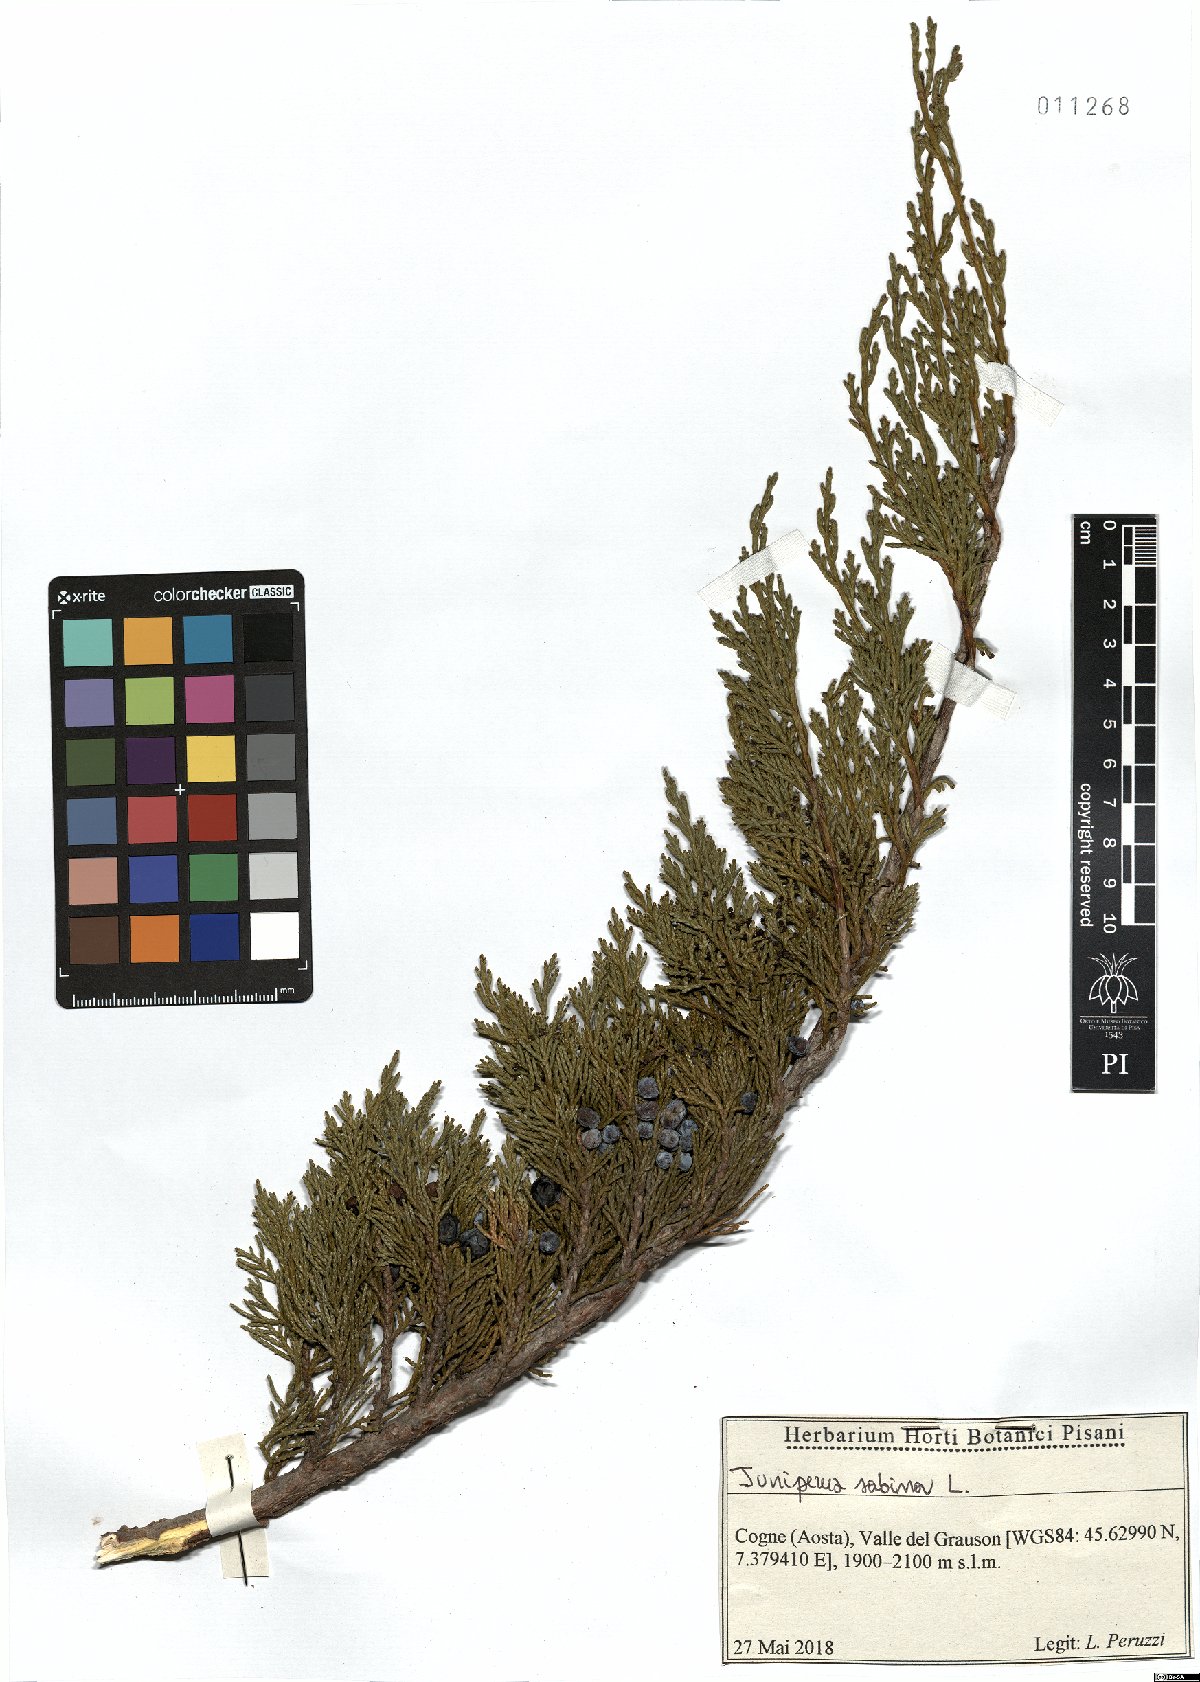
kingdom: Plantae
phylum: Tracheophyta
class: Pinopsida
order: Pinales
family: Cupressaceae
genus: Juniperus
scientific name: Juniperus sabina
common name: Savin
